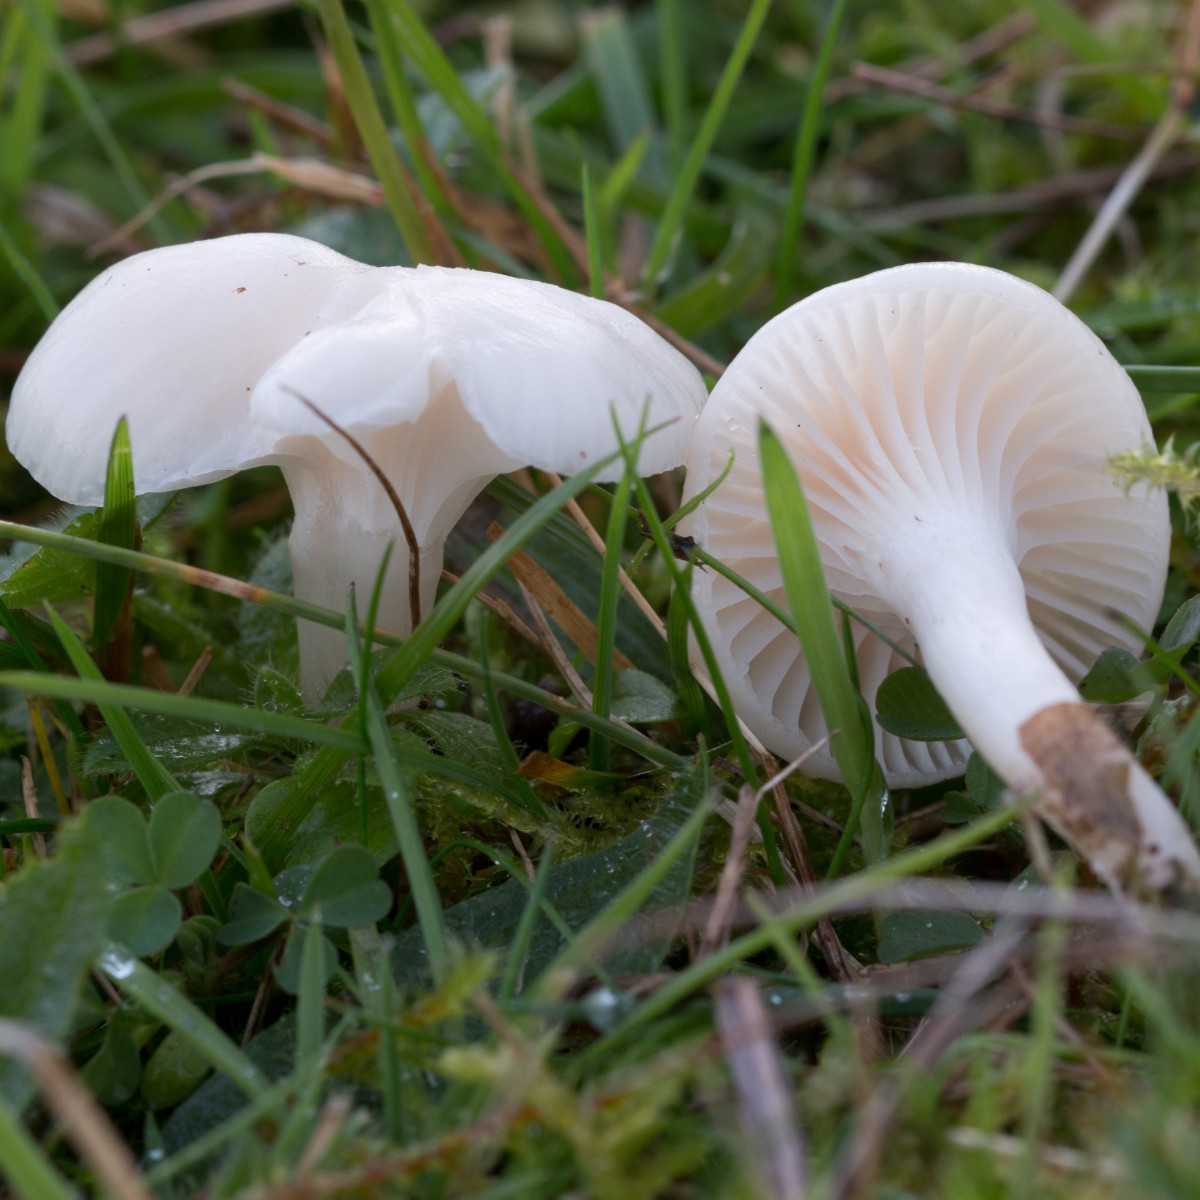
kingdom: Fungi
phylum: Basidiomycota
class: Agaricomycetes
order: Agaricales
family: Hygrophoraceae
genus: Cuphophyllus
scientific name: Cuphophyllus virgineus
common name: snehvid vokshat
